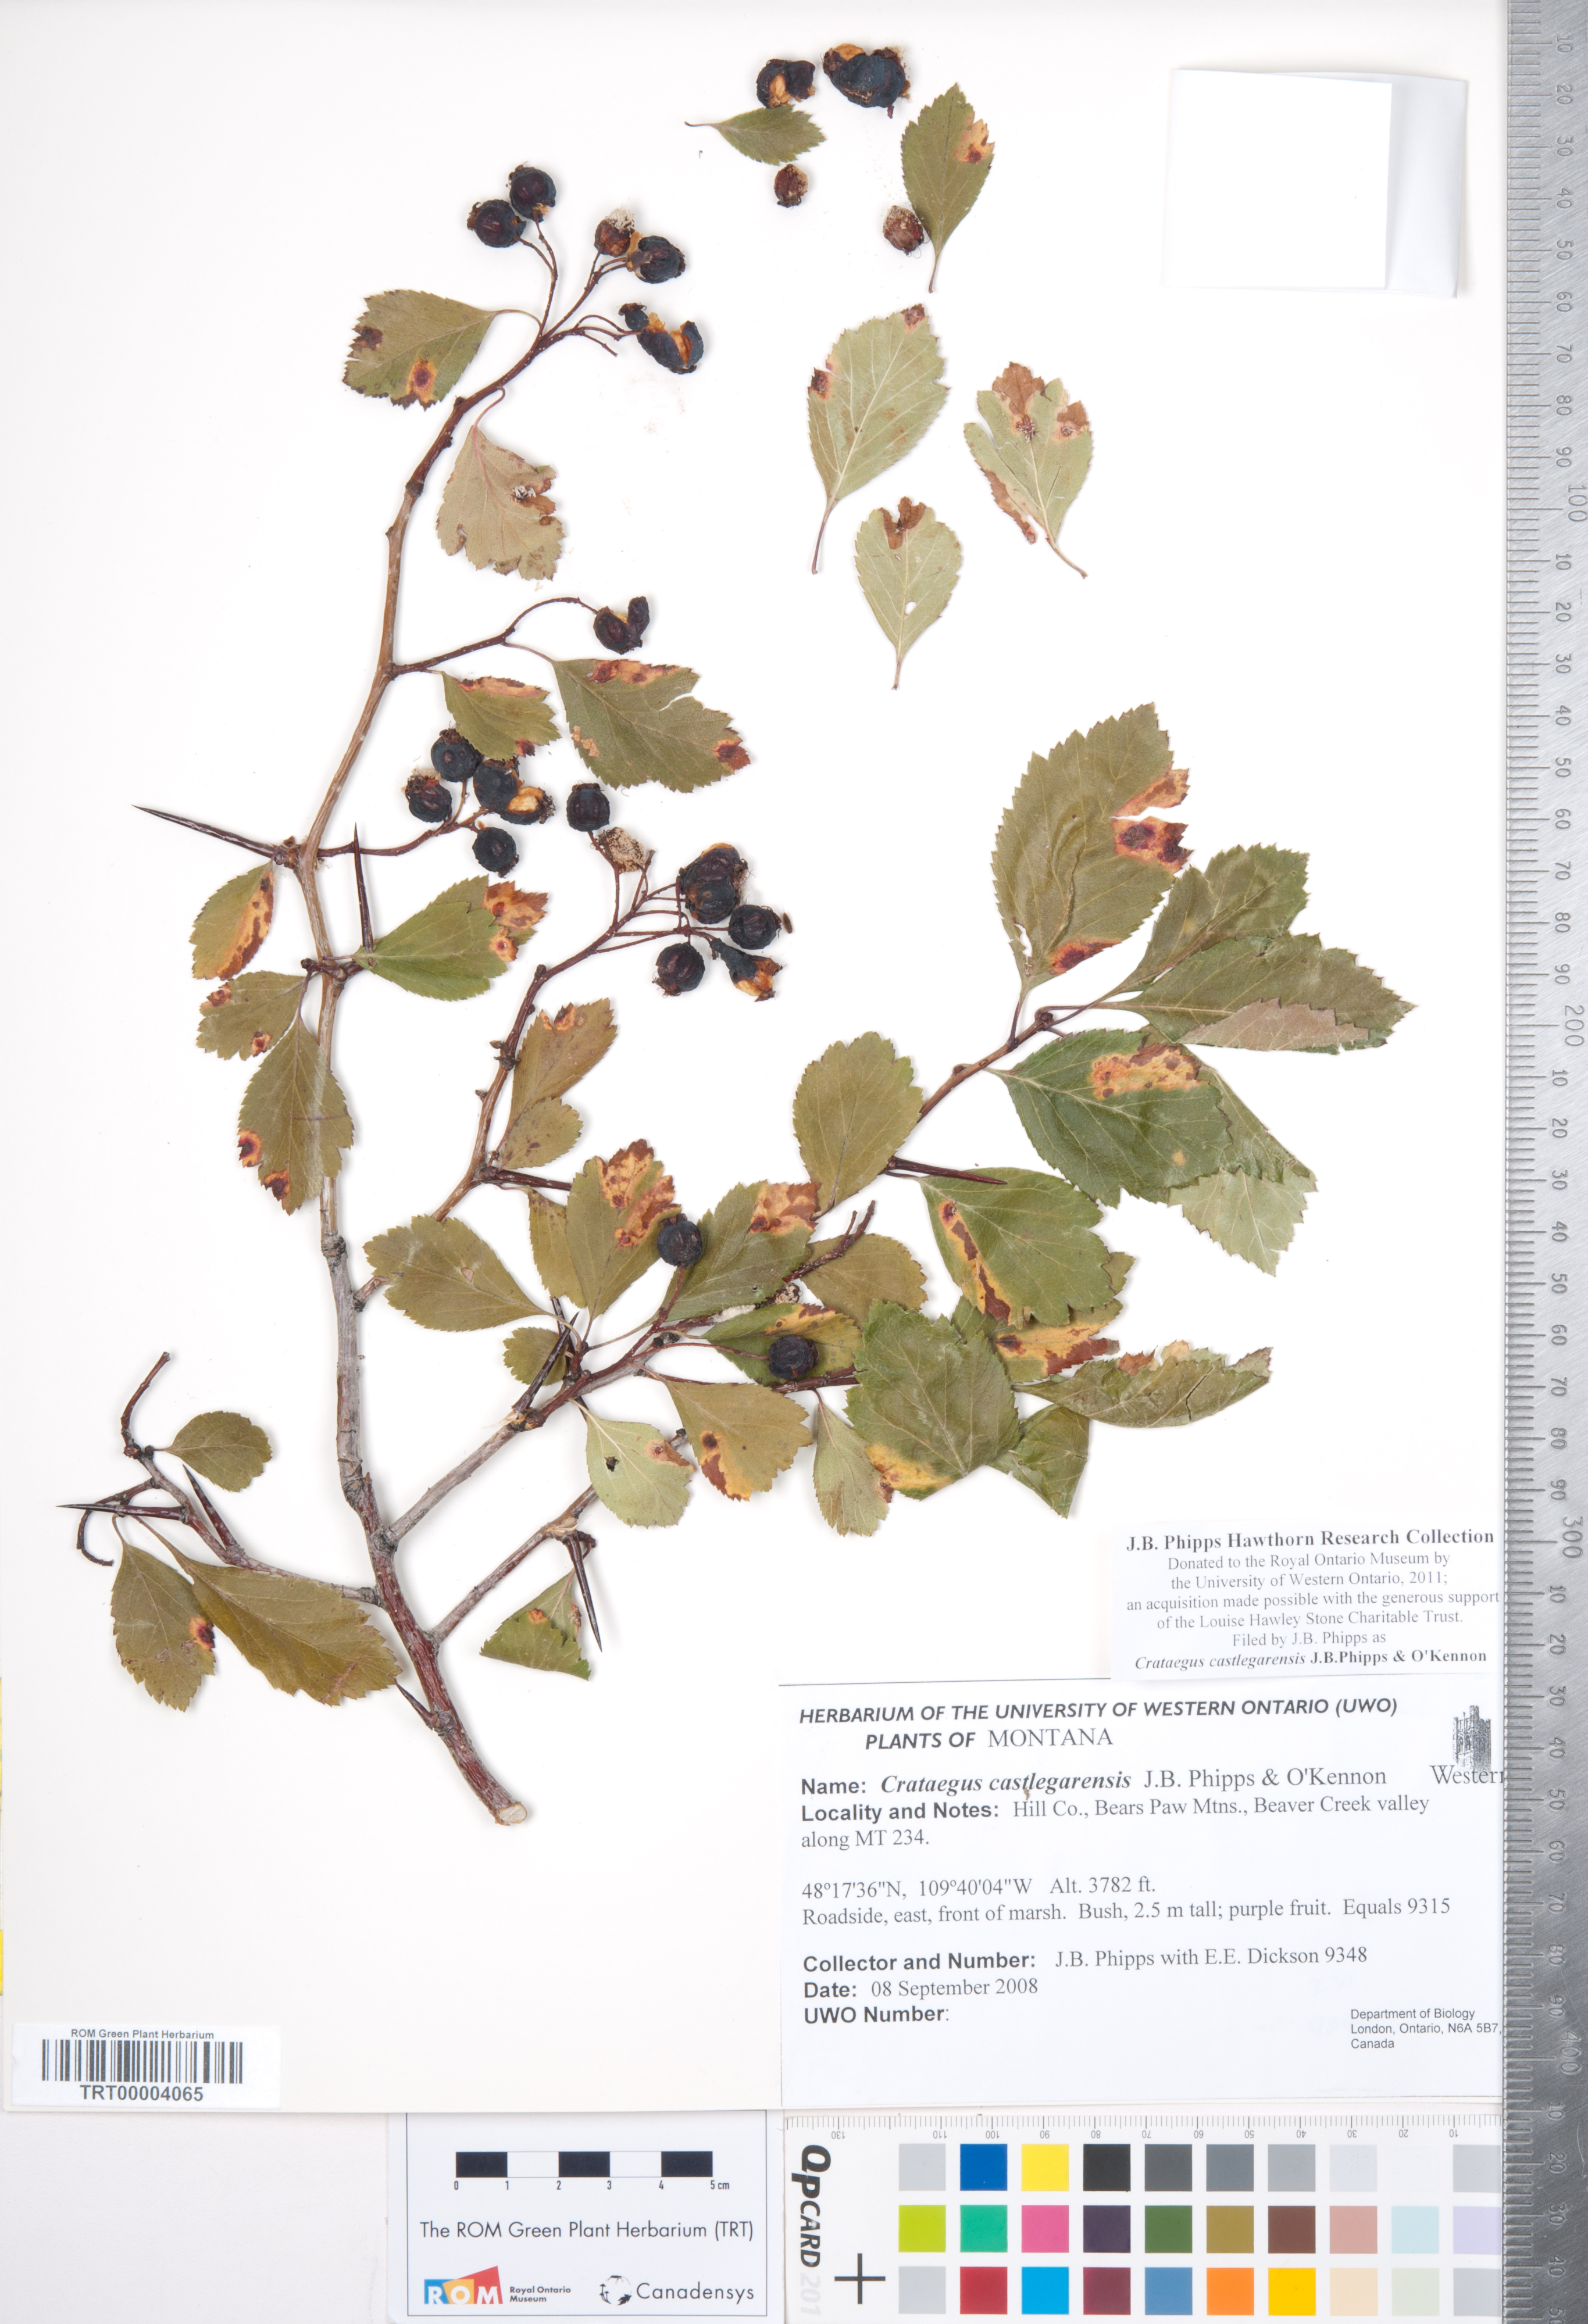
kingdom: Plantae
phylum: Tracheophyta
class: Magnoliopsida
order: Rosales
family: Rosaceae
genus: Crataegus
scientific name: Crataegus castlegarensis
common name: Castlegar hawthorn
